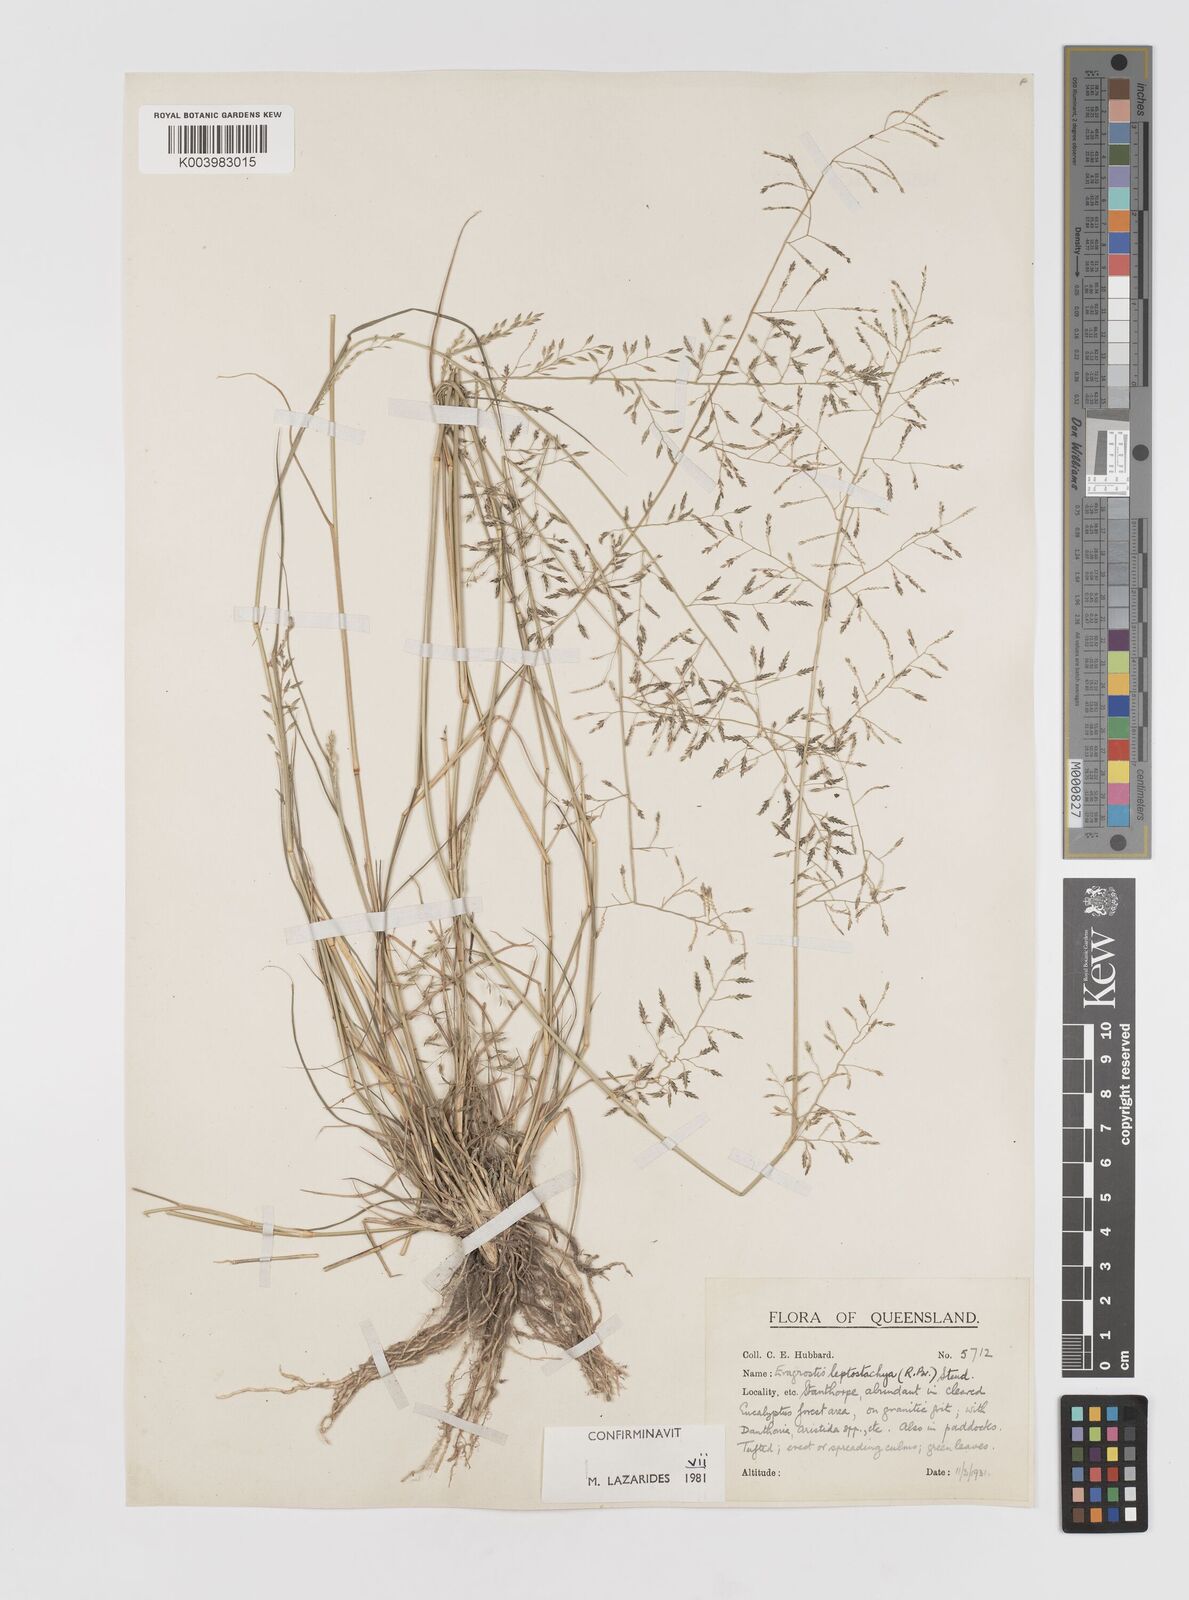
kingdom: Plantae
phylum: Tracheophyta
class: Liliopsida
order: Poales
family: Poaceae
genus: Eragrostis
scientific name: Eragrostis leptostachya
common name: Australian lovegrass
